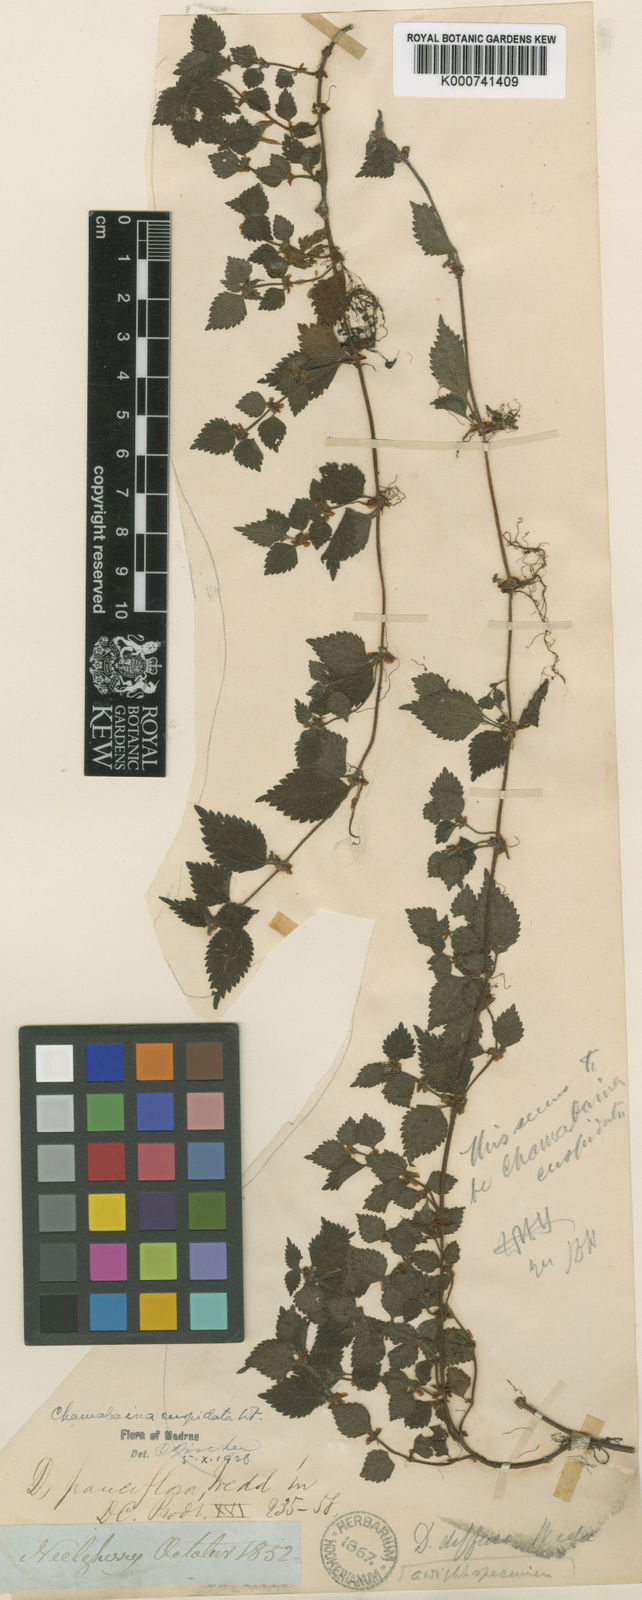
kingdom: Plantae
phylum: Tracheophyta
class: Magnoliopsida
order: Rosales
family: Urticaceae
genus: Chamabainia
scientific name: Chamabainia cuspidata
